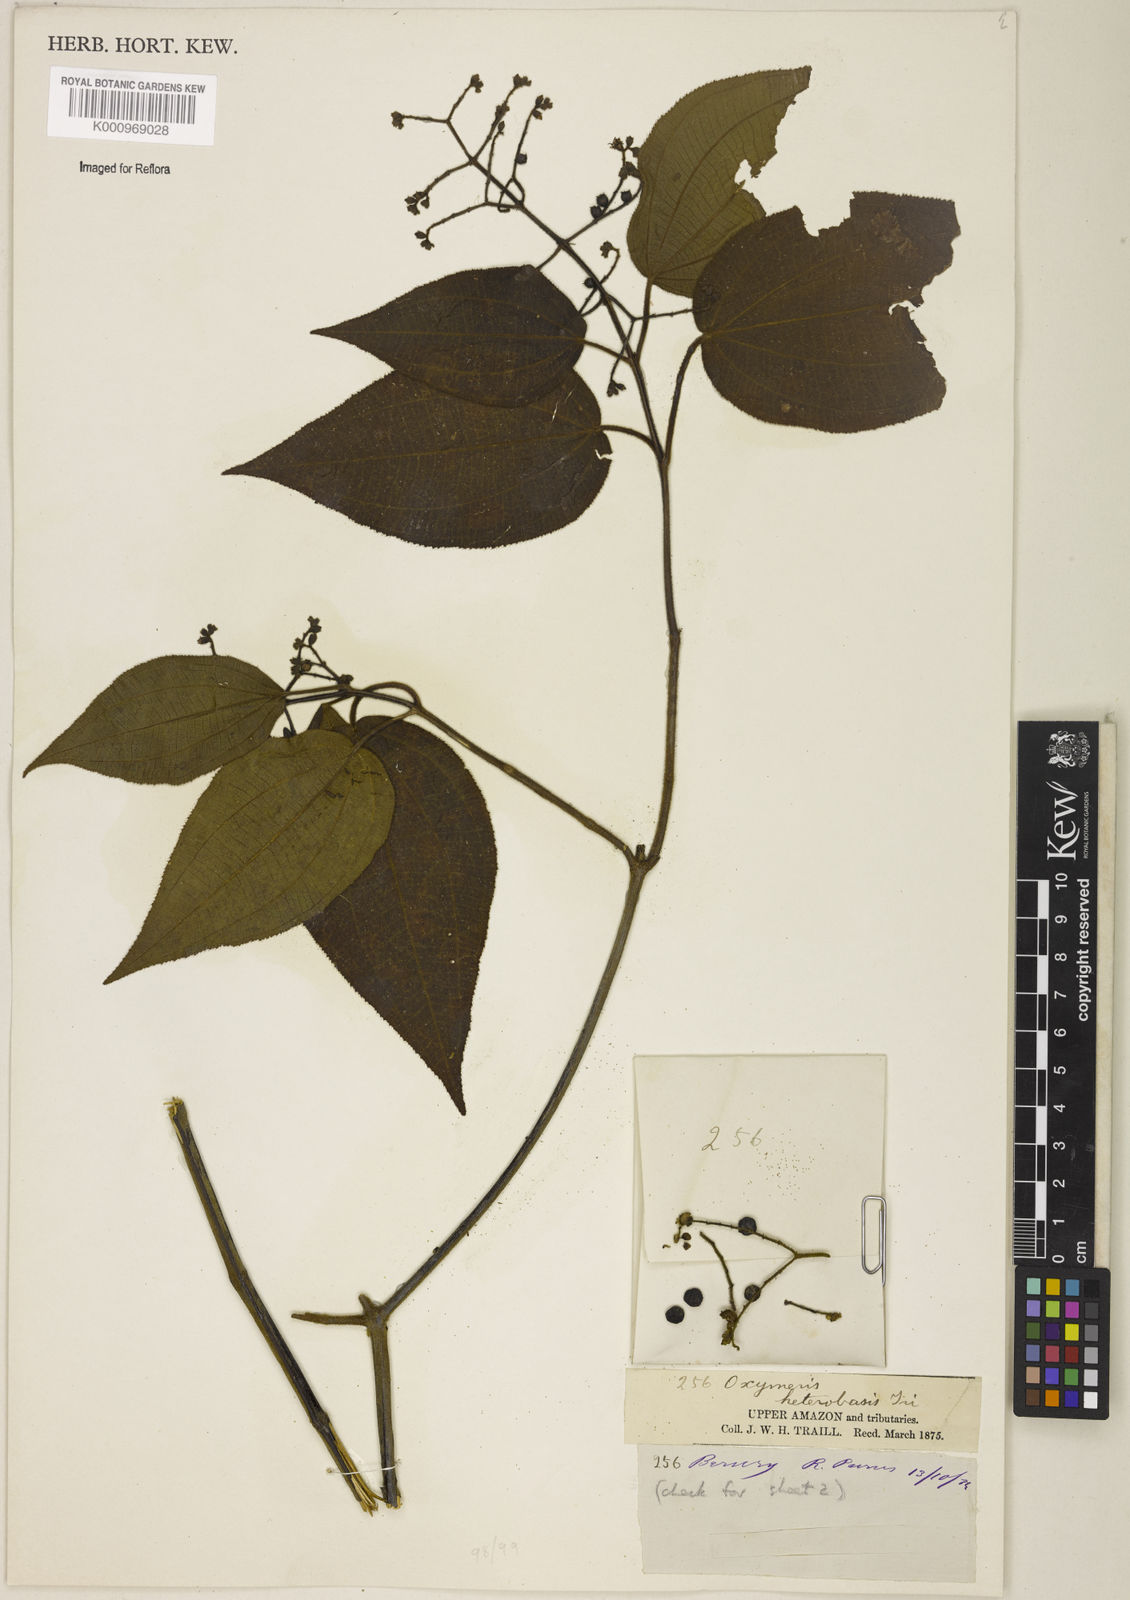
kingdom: Plantae
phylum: Tracheophyta
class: Magnoliopsida
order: Myrtales
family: Melastomataceae
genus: Miconia
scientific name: Miconia heteroclita
